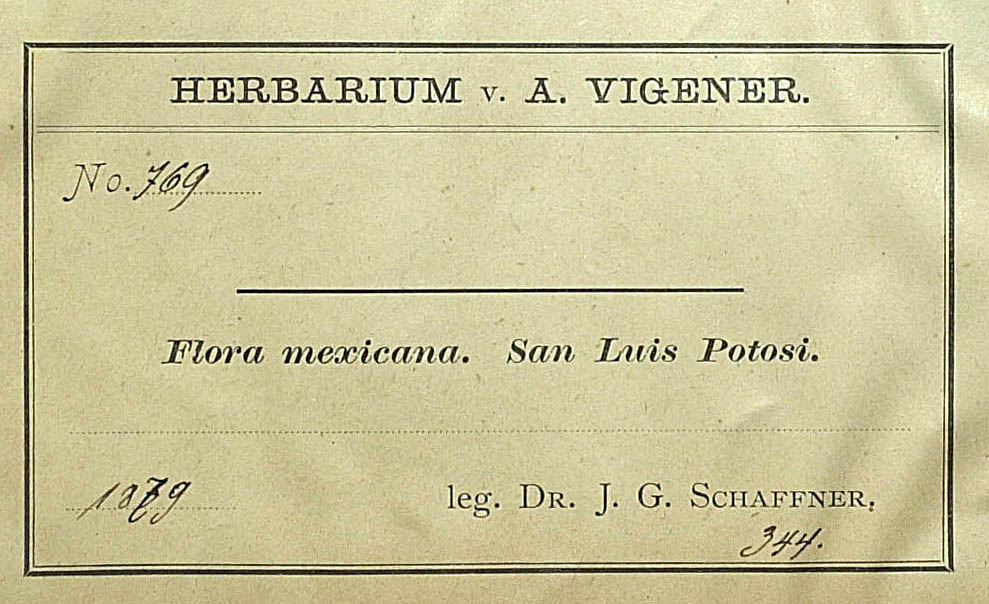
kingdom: Plantae
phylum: Tracheophyta
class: Magnoliopsida
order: Asterales
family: Asteraceae
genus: Verbesina
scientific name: Verbesina virgata
